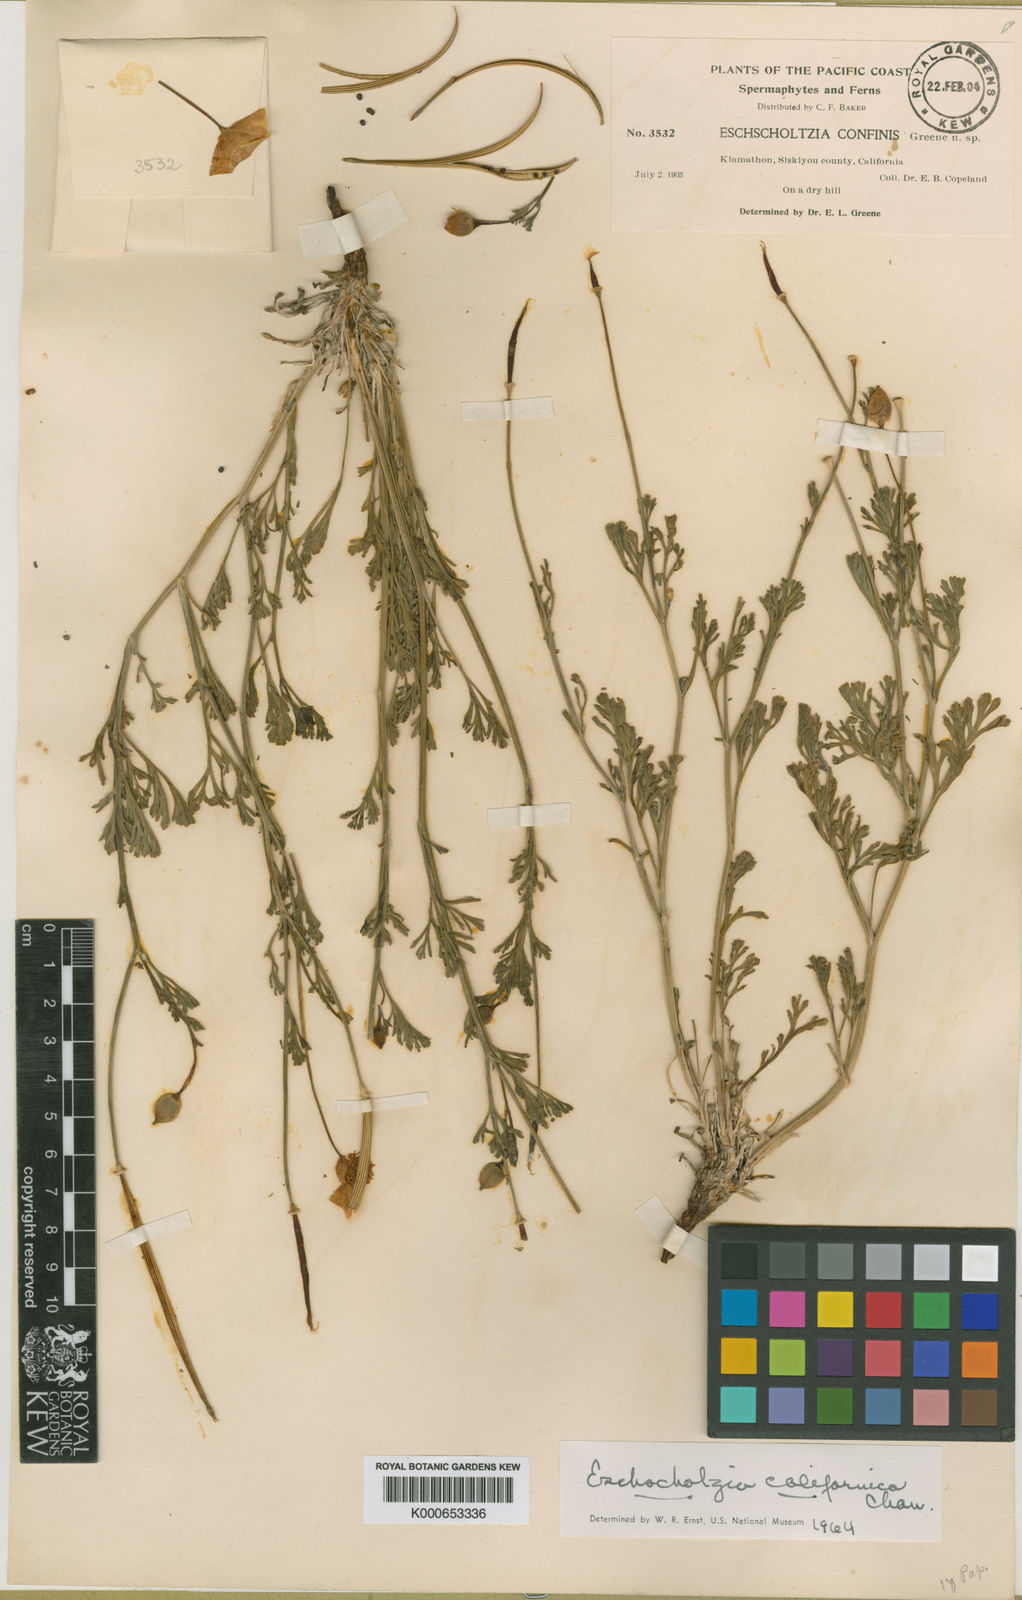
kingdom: Plantae
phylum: Tracheophyta
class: Magnoliopsida
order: Ranunculales
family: Papaveraceae
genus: Eschscholzia
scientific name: Eschscholzia californica
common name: California poppy
